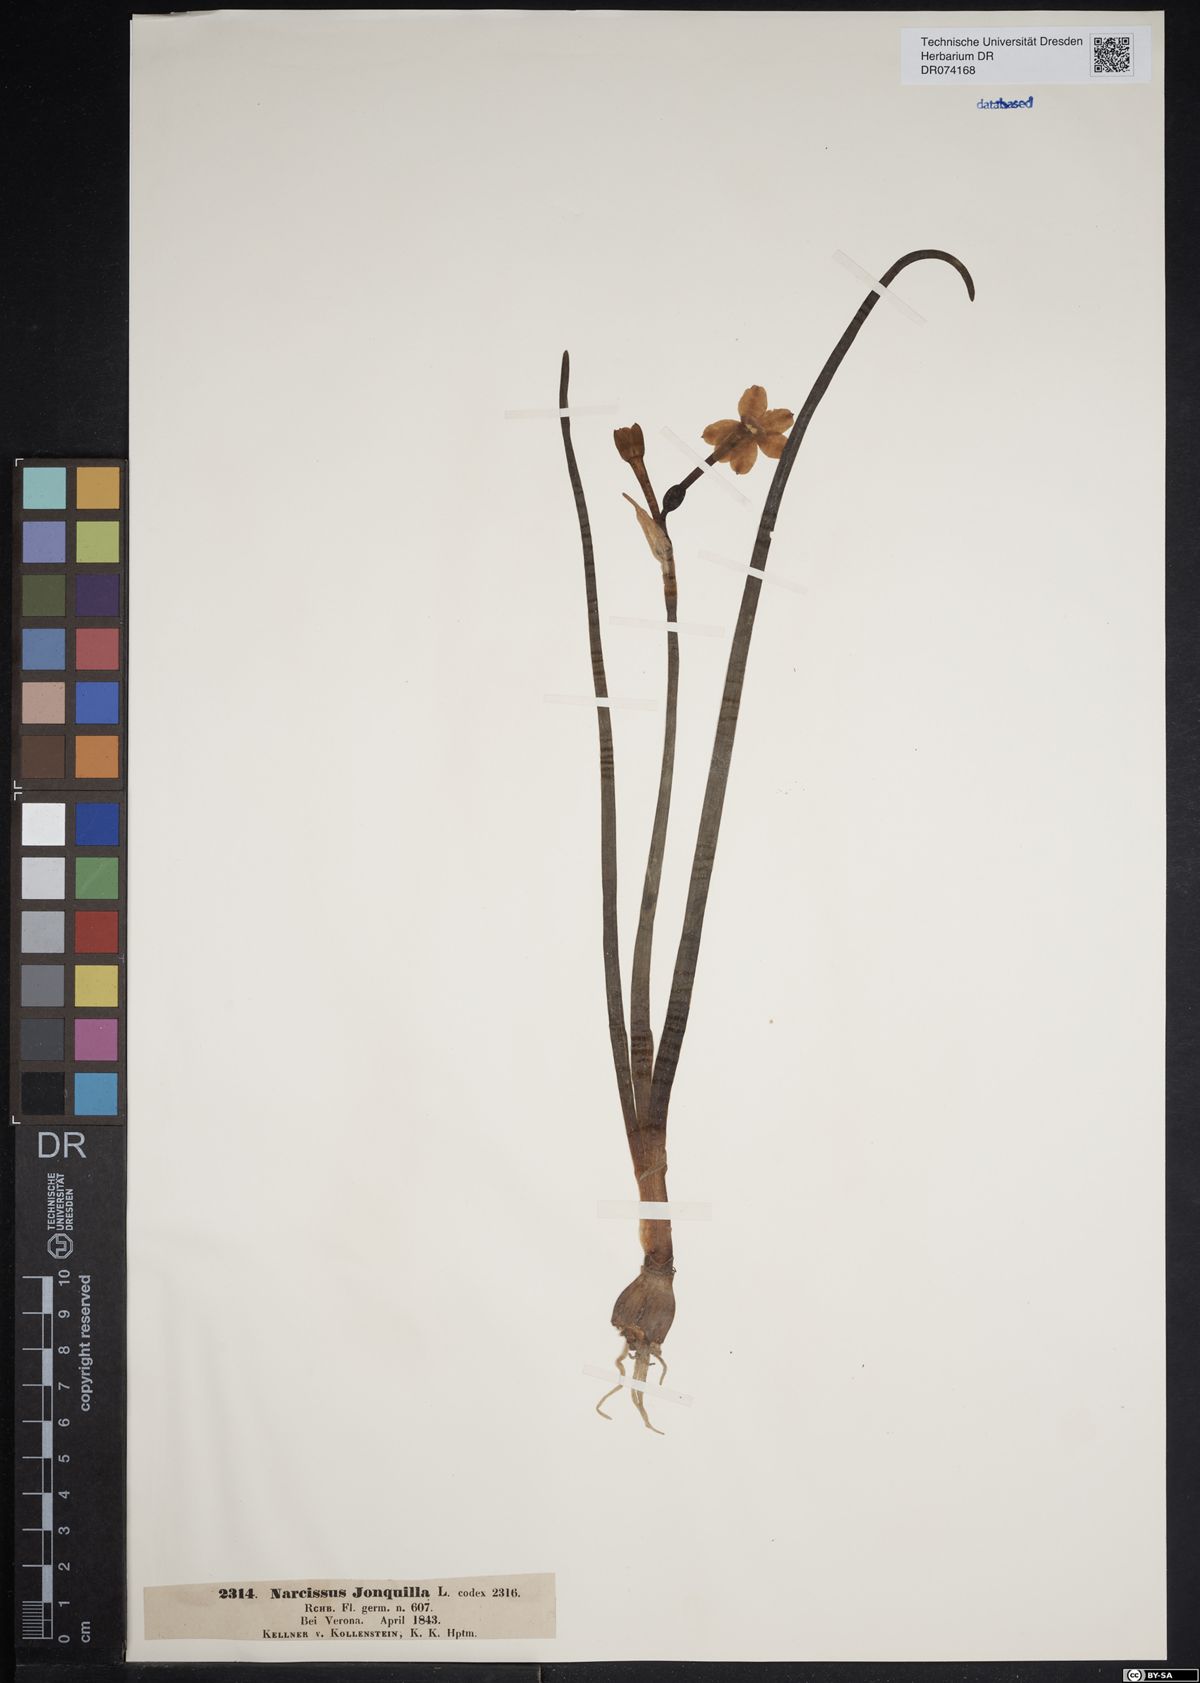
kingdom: Plantae
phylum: Tracheophyta
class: Liliopsida
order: Asparagales
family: Amaryllidaceae
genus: Narcissus
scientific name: Narcissus jonquilla
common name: Jonquil
